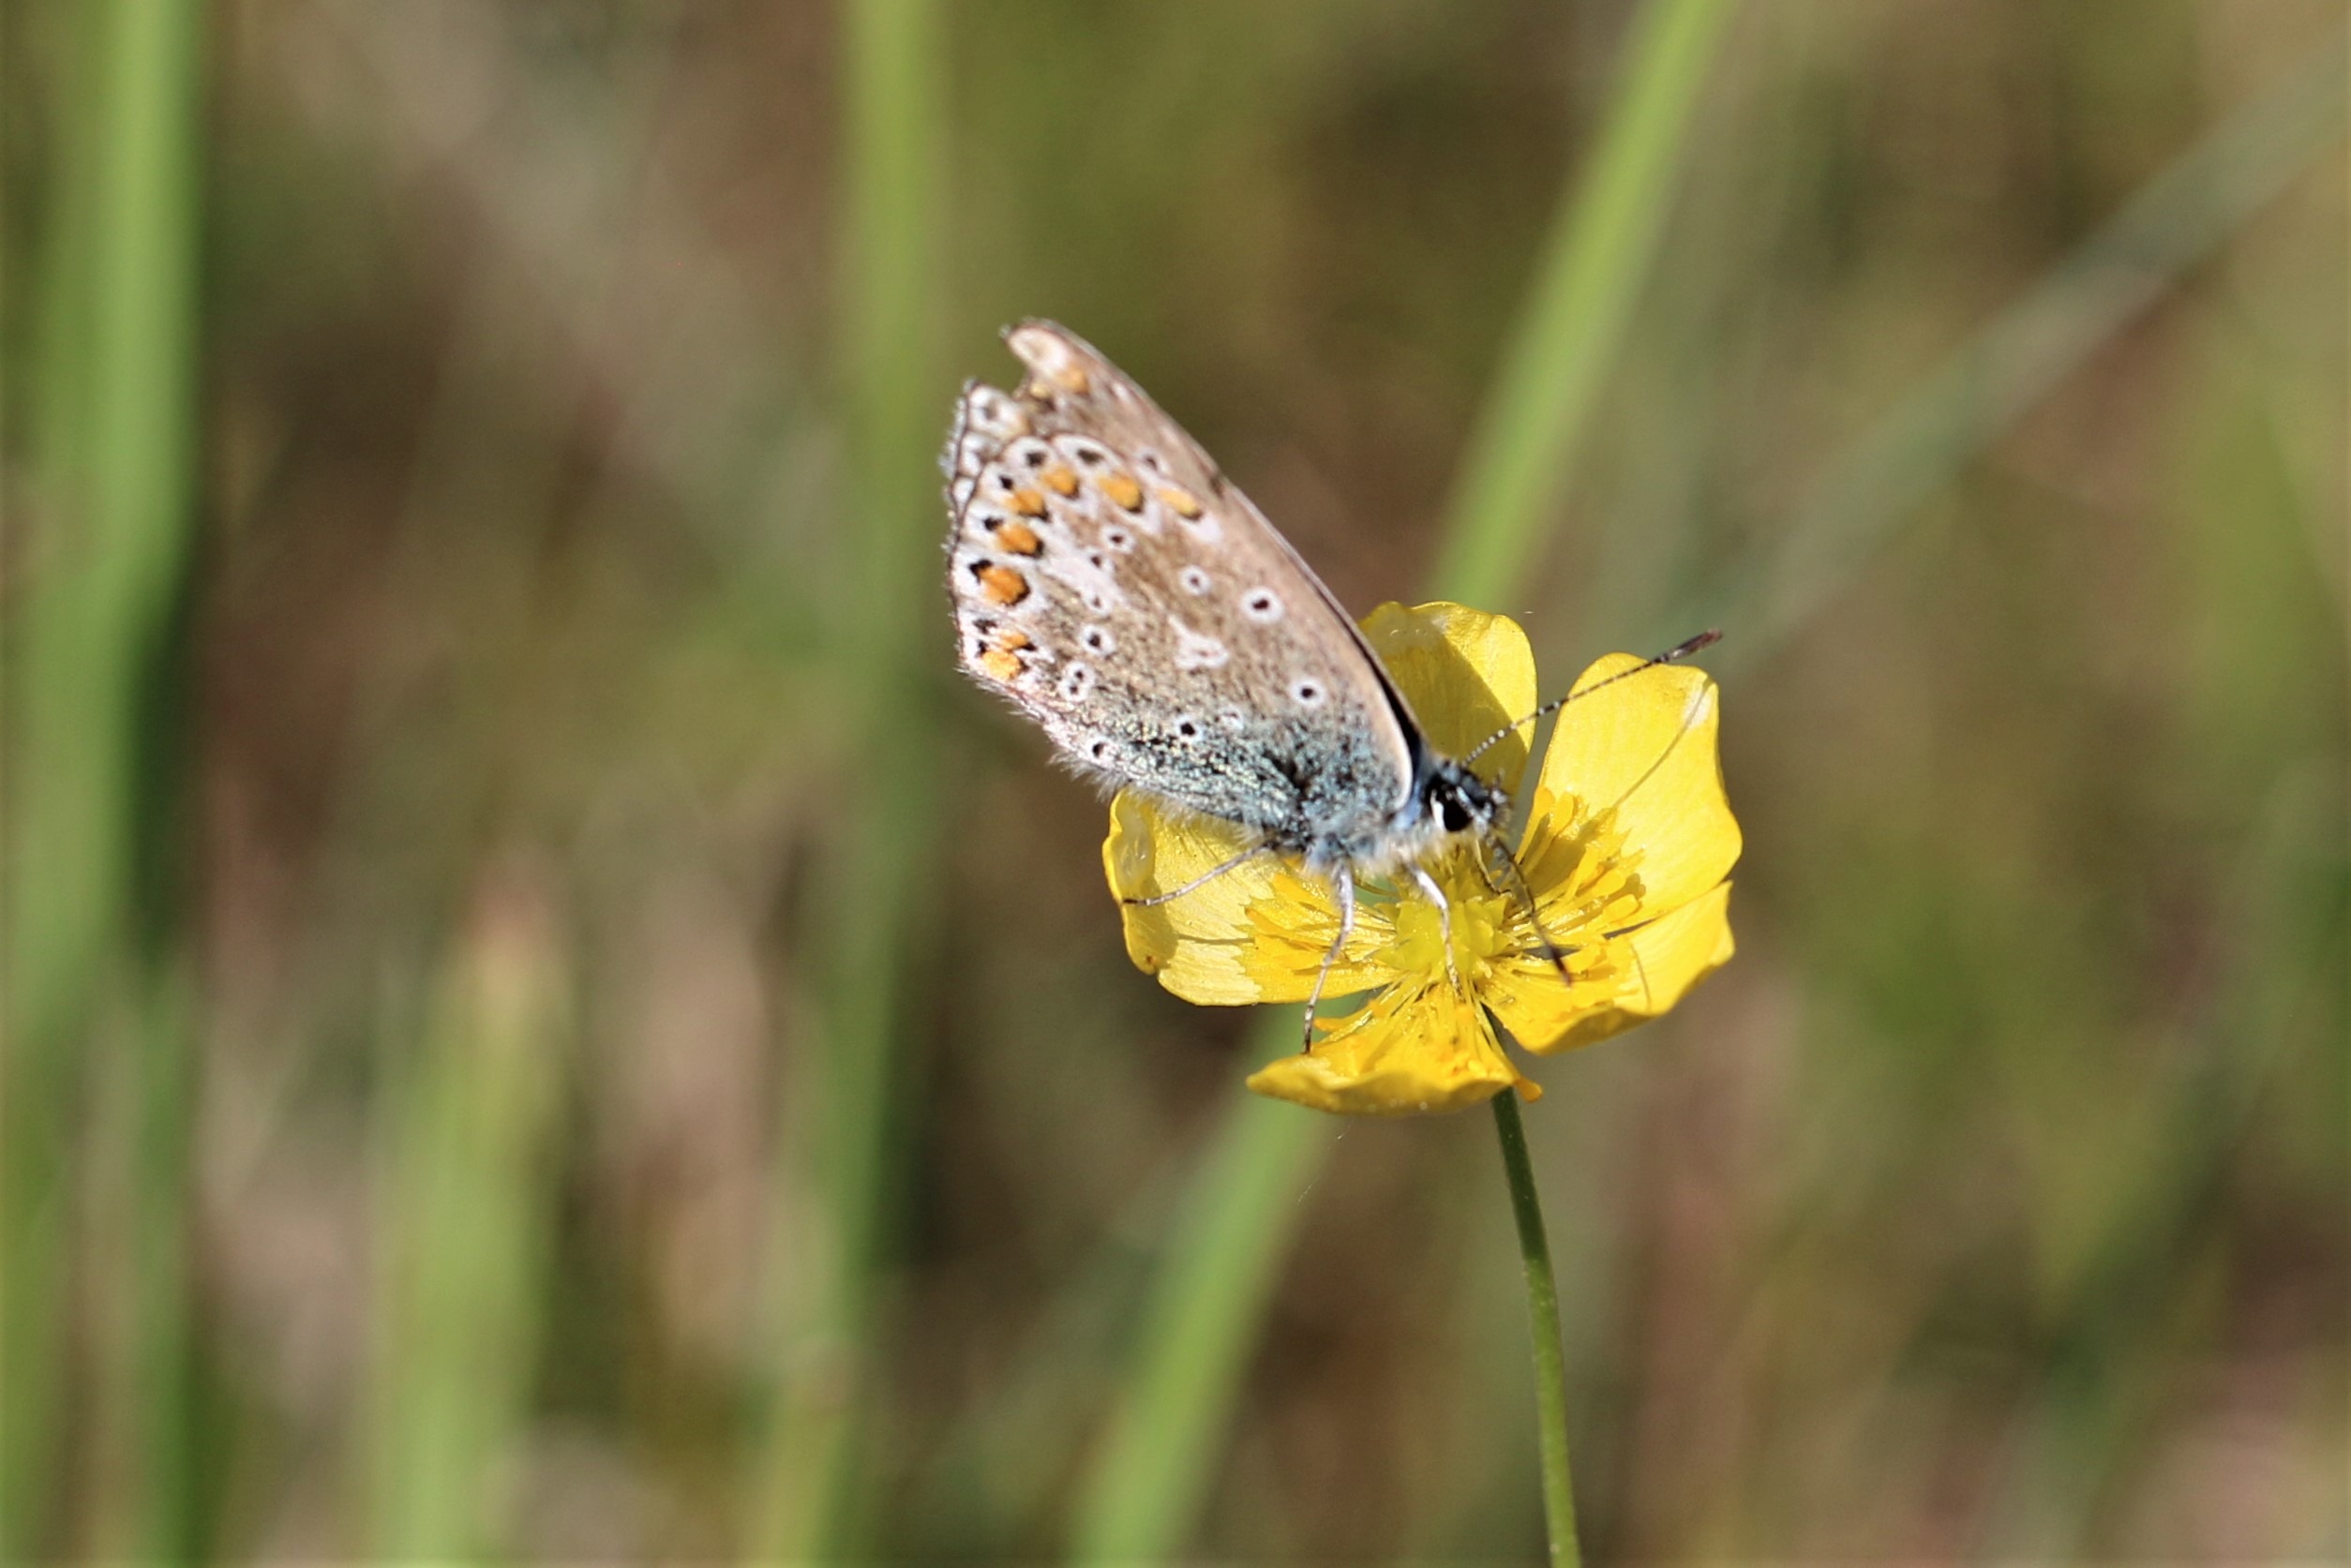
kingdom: Animalia
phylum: Arthropoda
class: Insecta
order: Lepidoptera
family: Lycaenidae
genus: Polyommatus
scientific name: Polyommatus icarus
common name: Almindelig blåfugl
